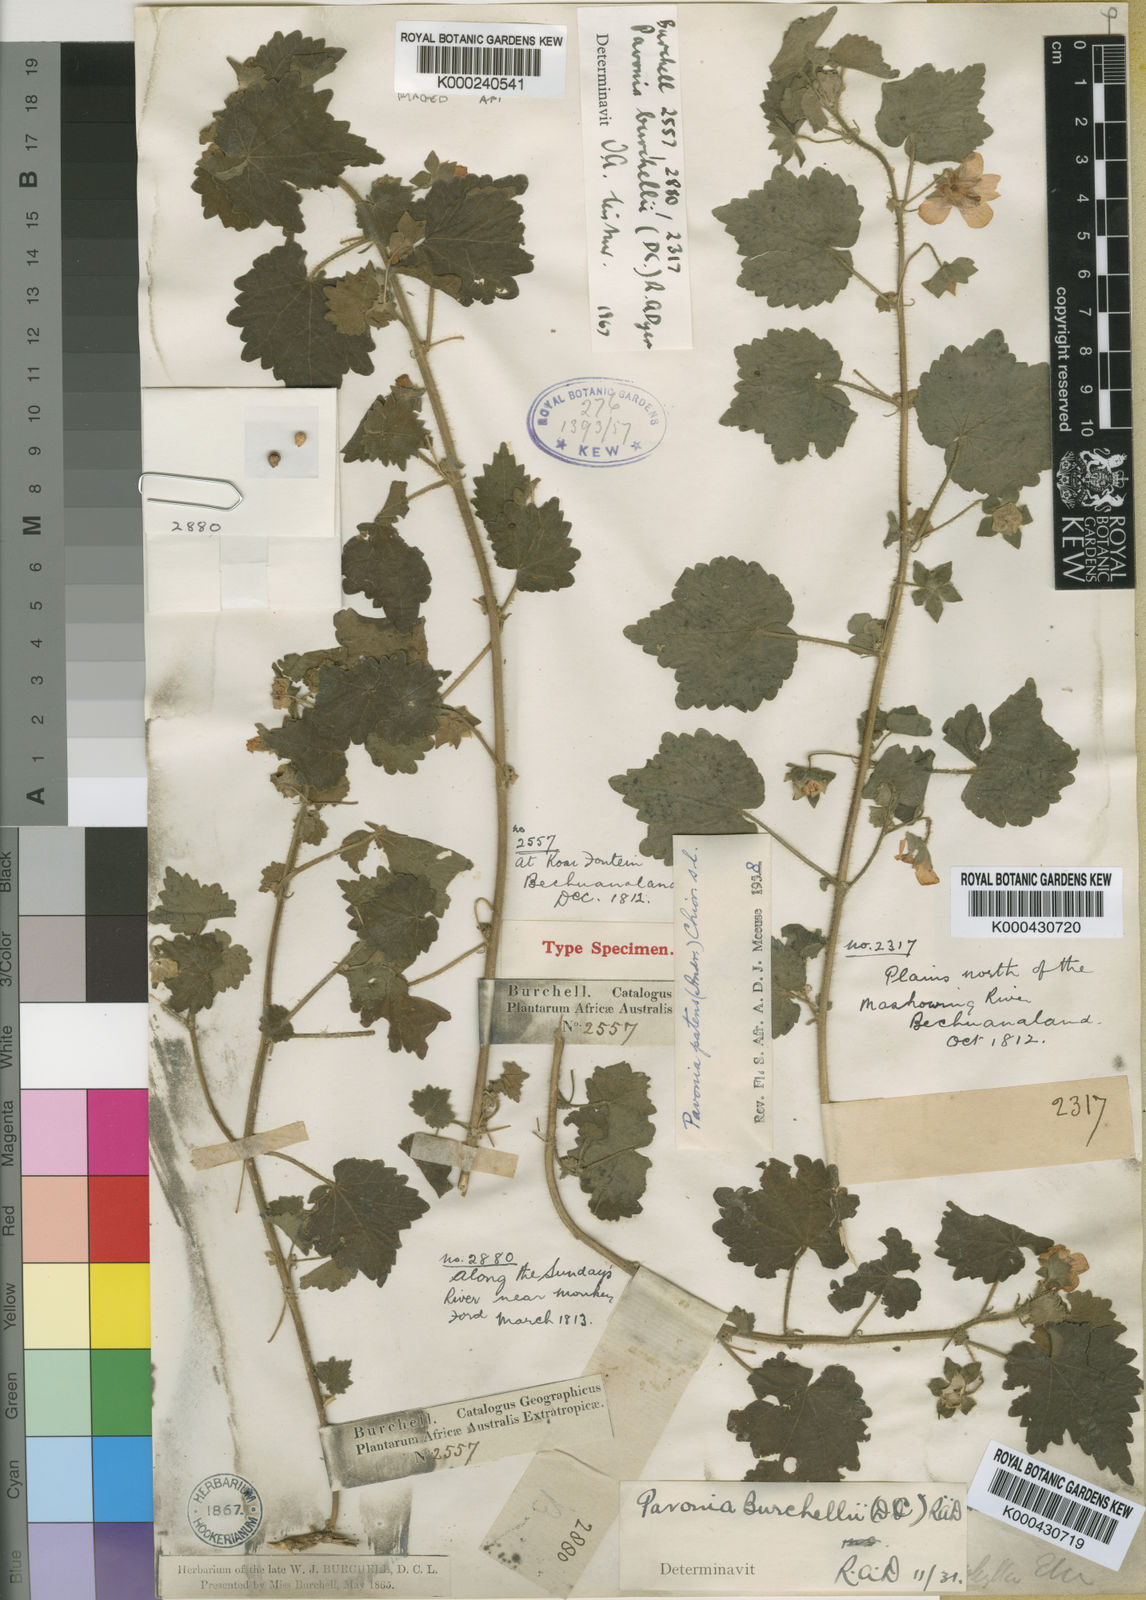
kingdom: Plantae
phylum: Tracheophyta
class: Magnoliopsida
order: Malvales
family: Malvaceae
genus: Pavonia
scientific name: Pavonia burchellii
